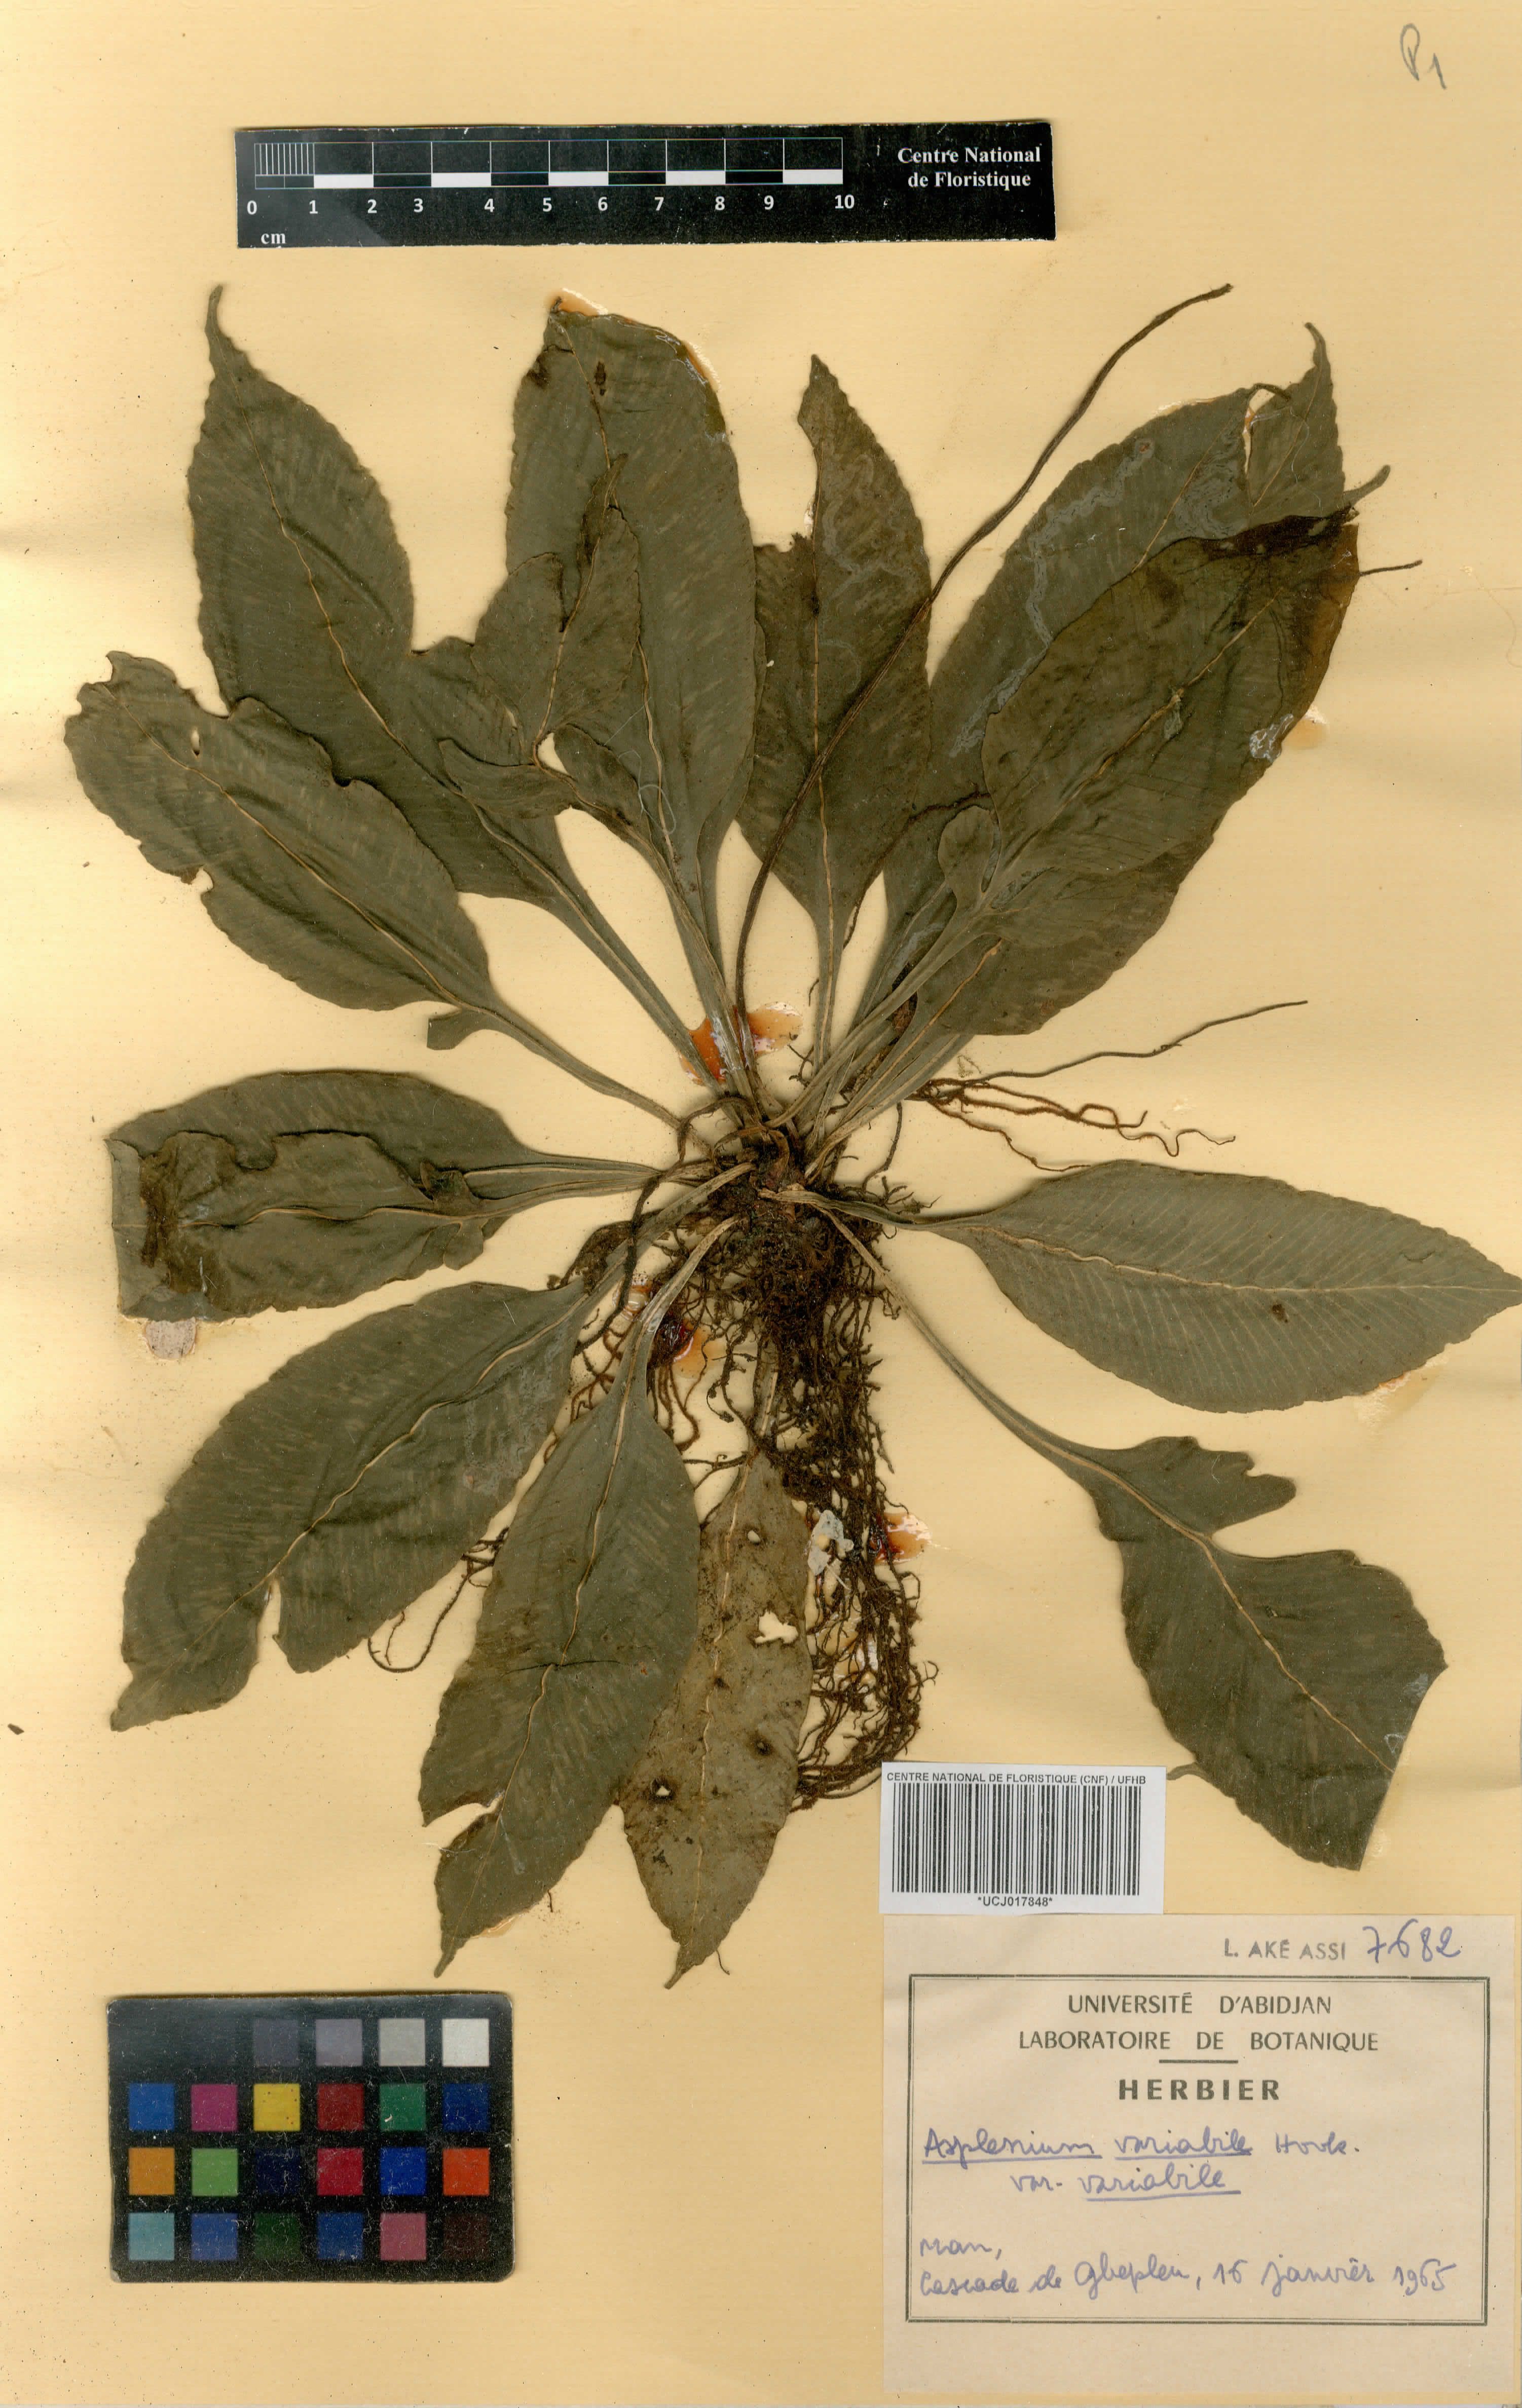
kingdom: Plantae
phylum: Tracheophyta
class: Polypodiopsida
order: Polypodiales
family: Aspleniaceae
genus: Asplenium
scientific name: Asplenium variabile
